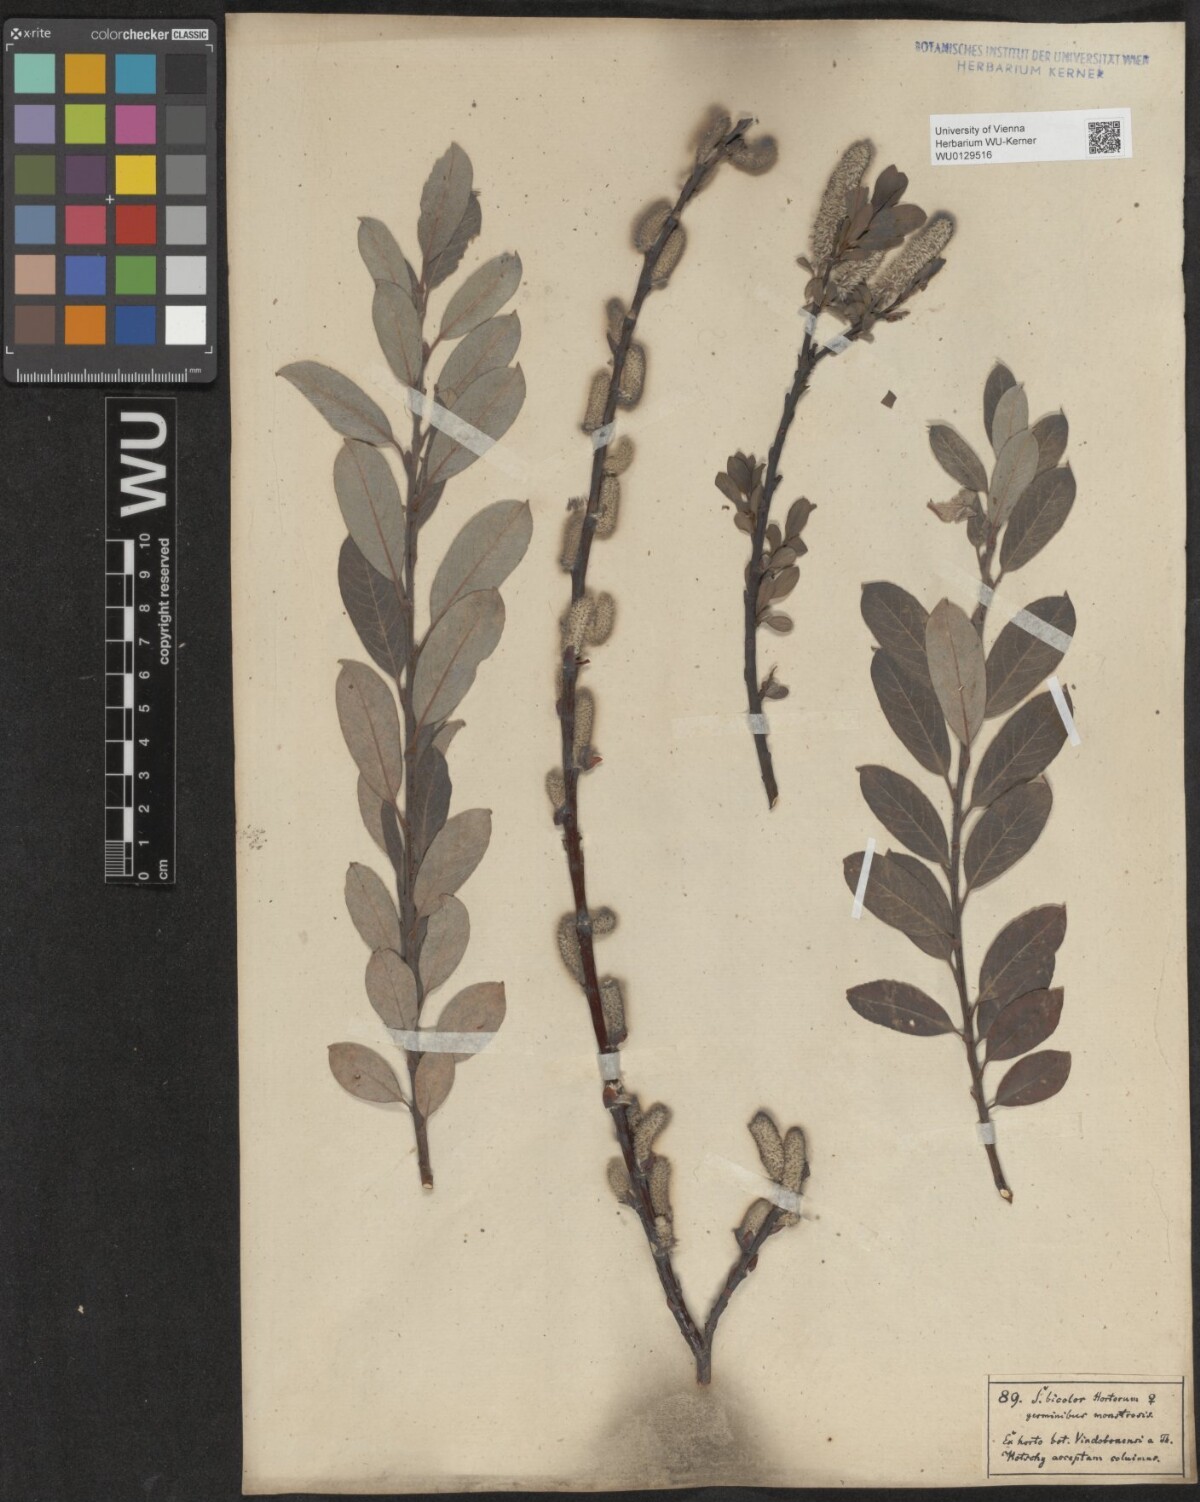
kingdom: Plantae
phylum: Tracheophyta
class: Magnoliopsida
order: Malpighiales
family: Salicaceae
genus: Salix
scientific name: Salix bicolor
